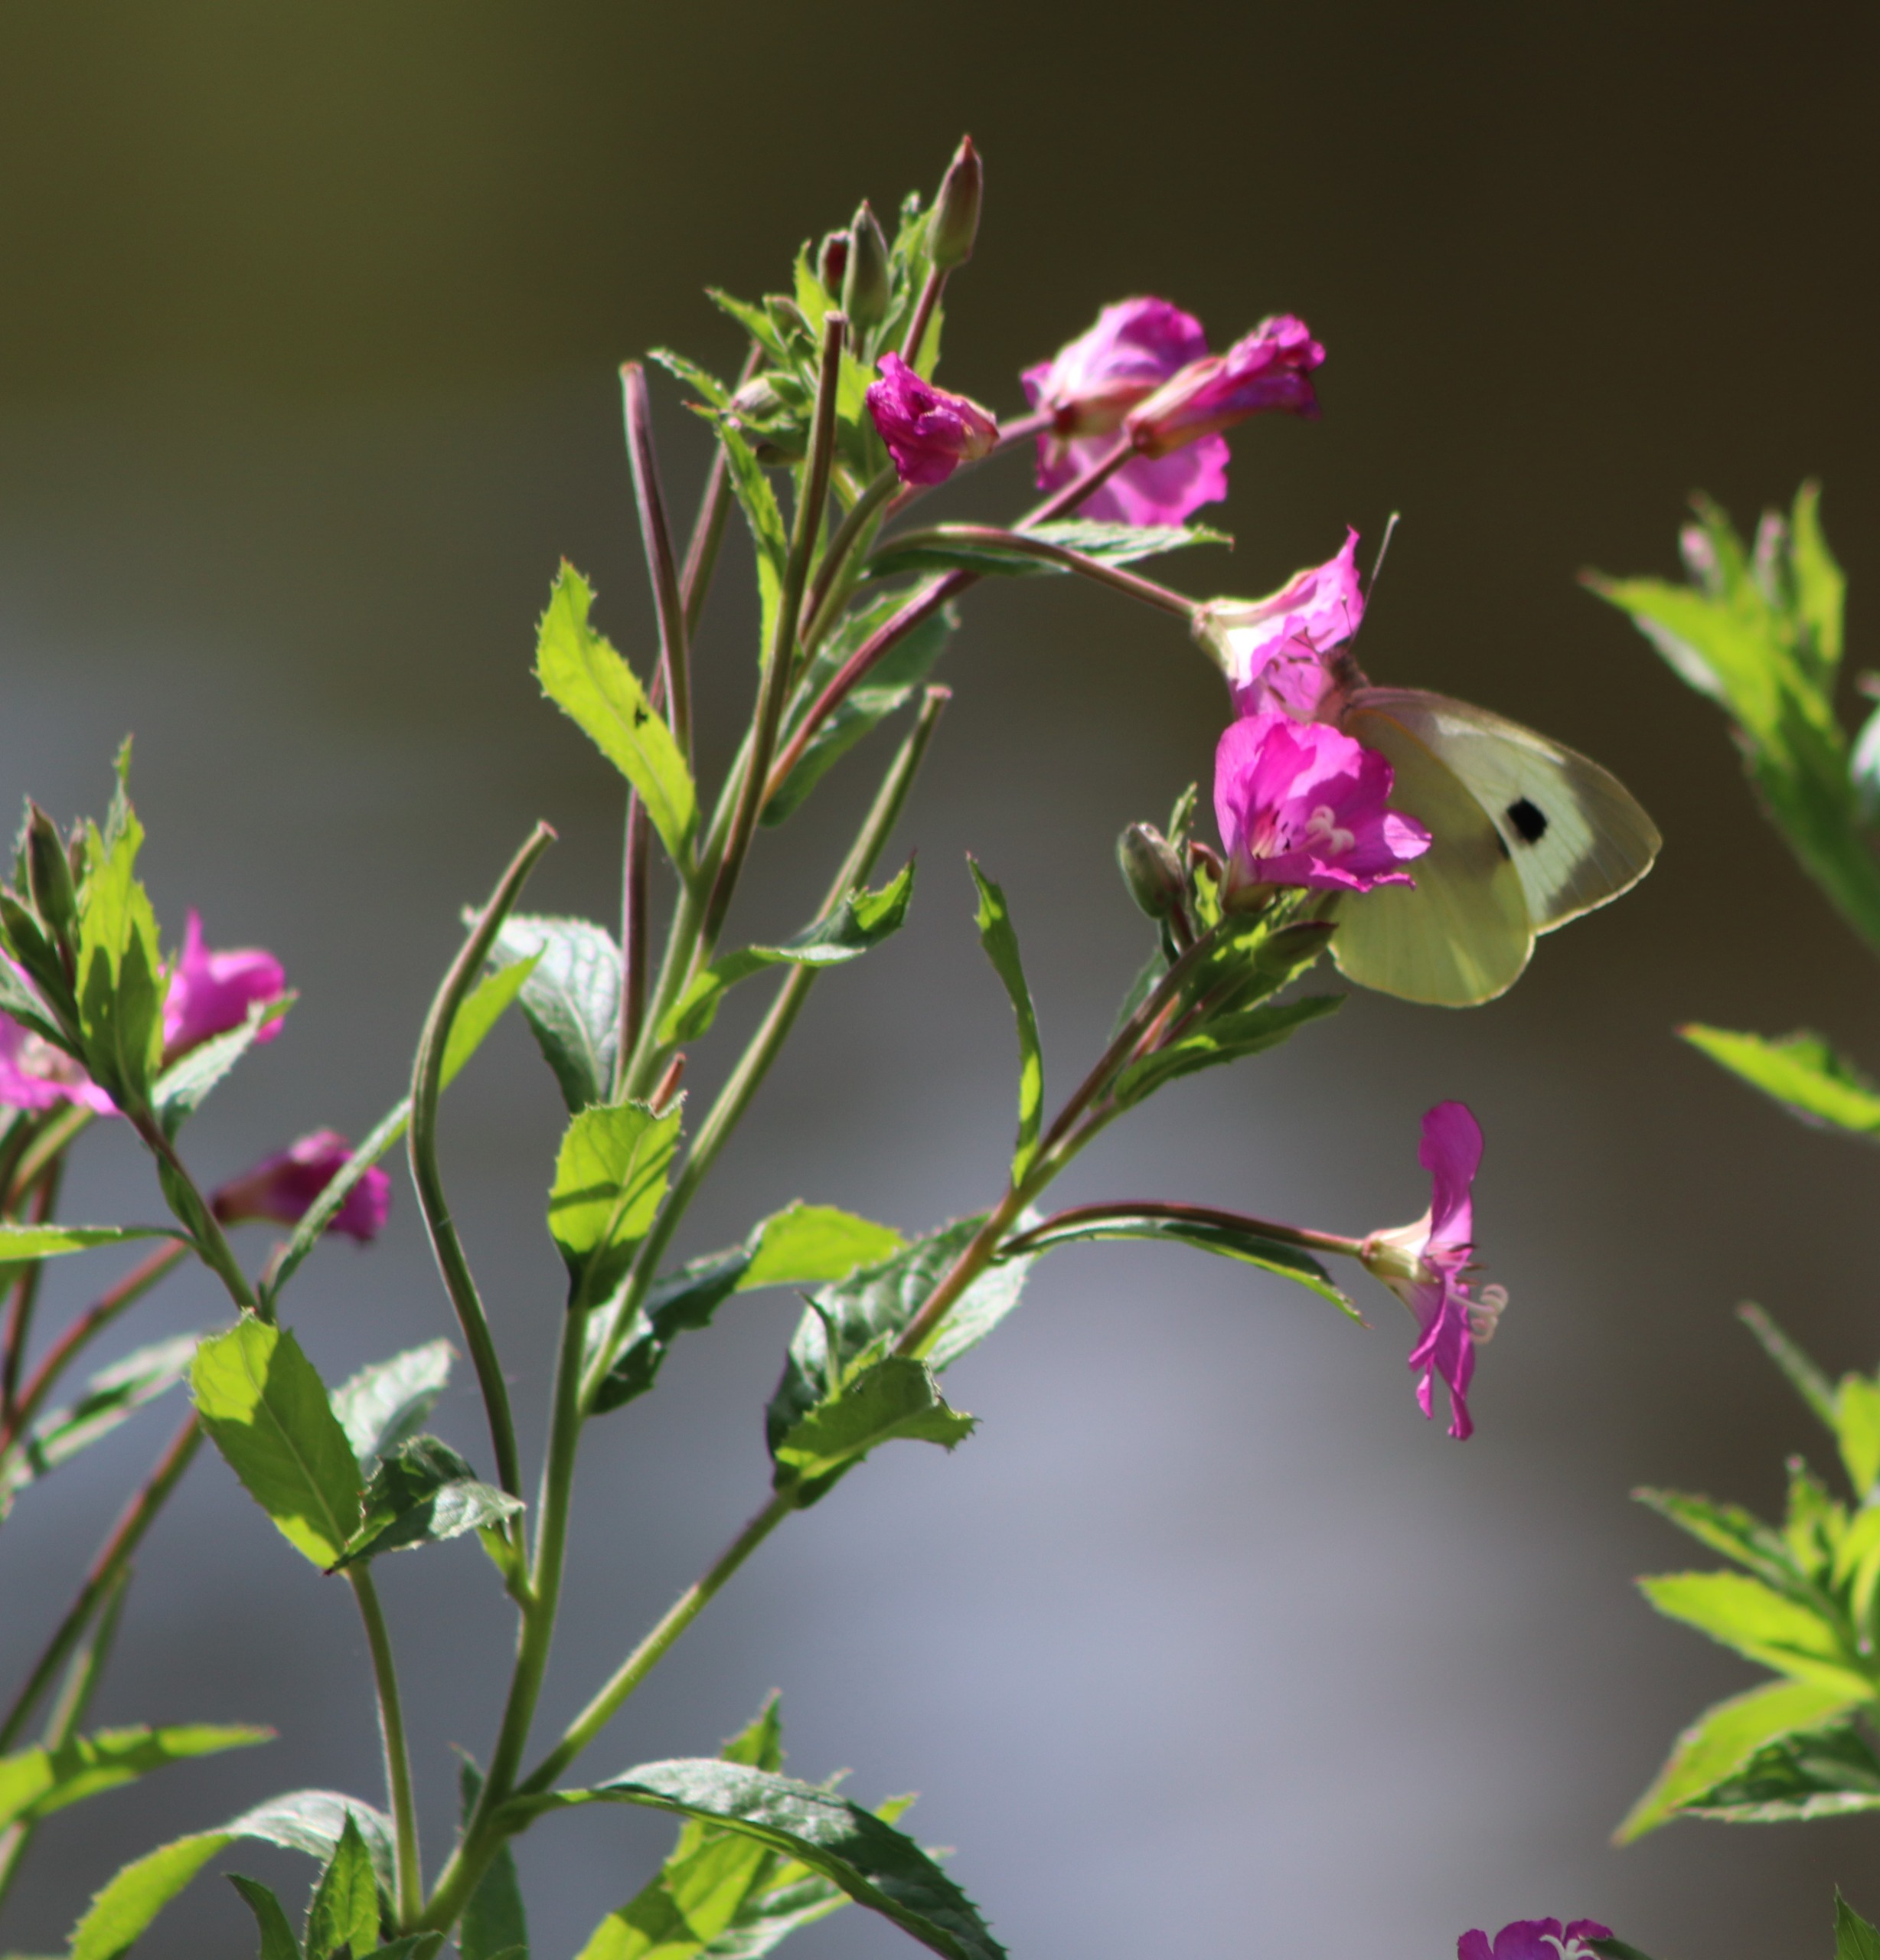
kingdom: Plantae
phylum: Tracheophyta
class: Magnoliopsida
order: Myrtales
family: Onagraceae
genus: Epilobium
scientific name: Epilobium hirsutum
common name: Lådden dueurt
